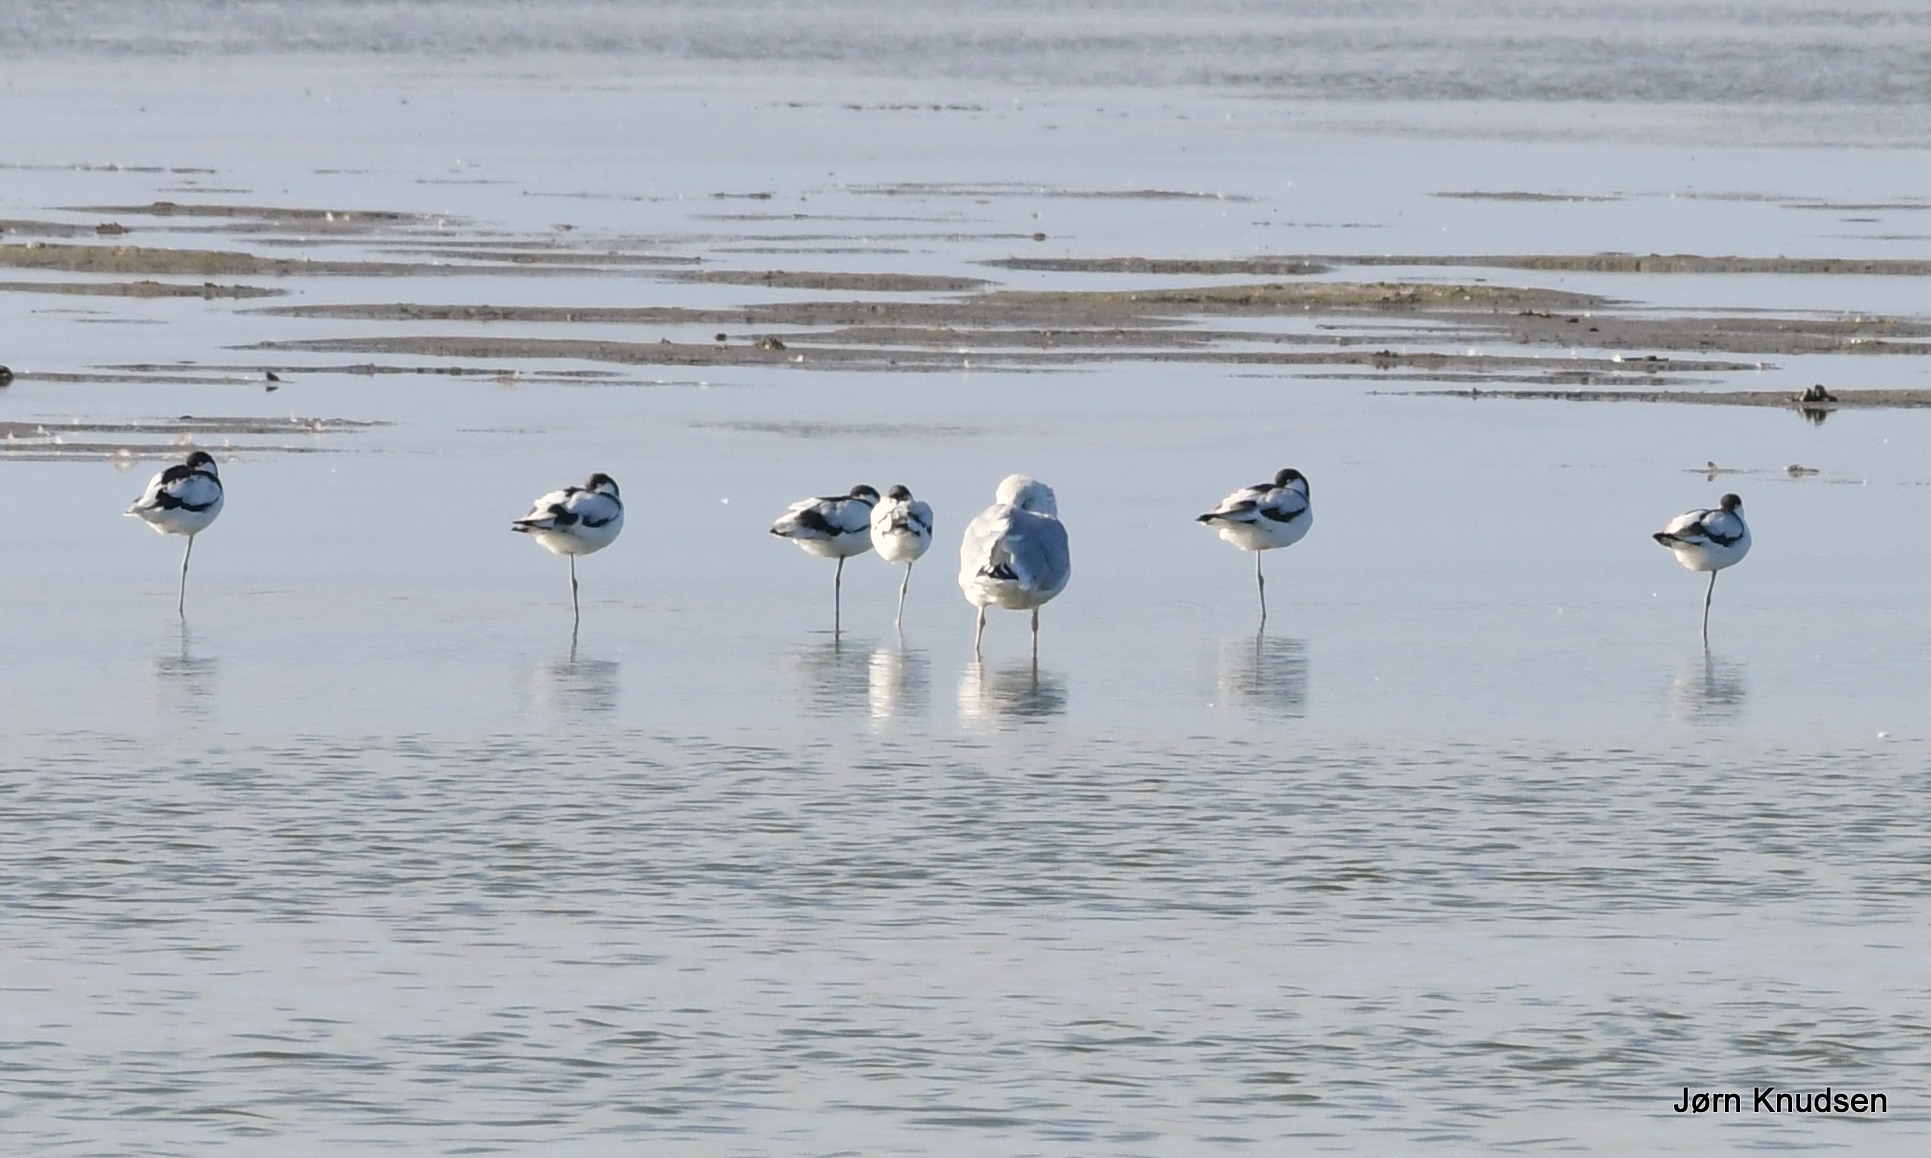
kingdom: Animalia
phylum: Chordata
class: Aves
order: Charadriiformes
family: Recurvirostridae
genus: Recurvirostra
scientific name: Recurvirostra avosetta
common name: Klyde
